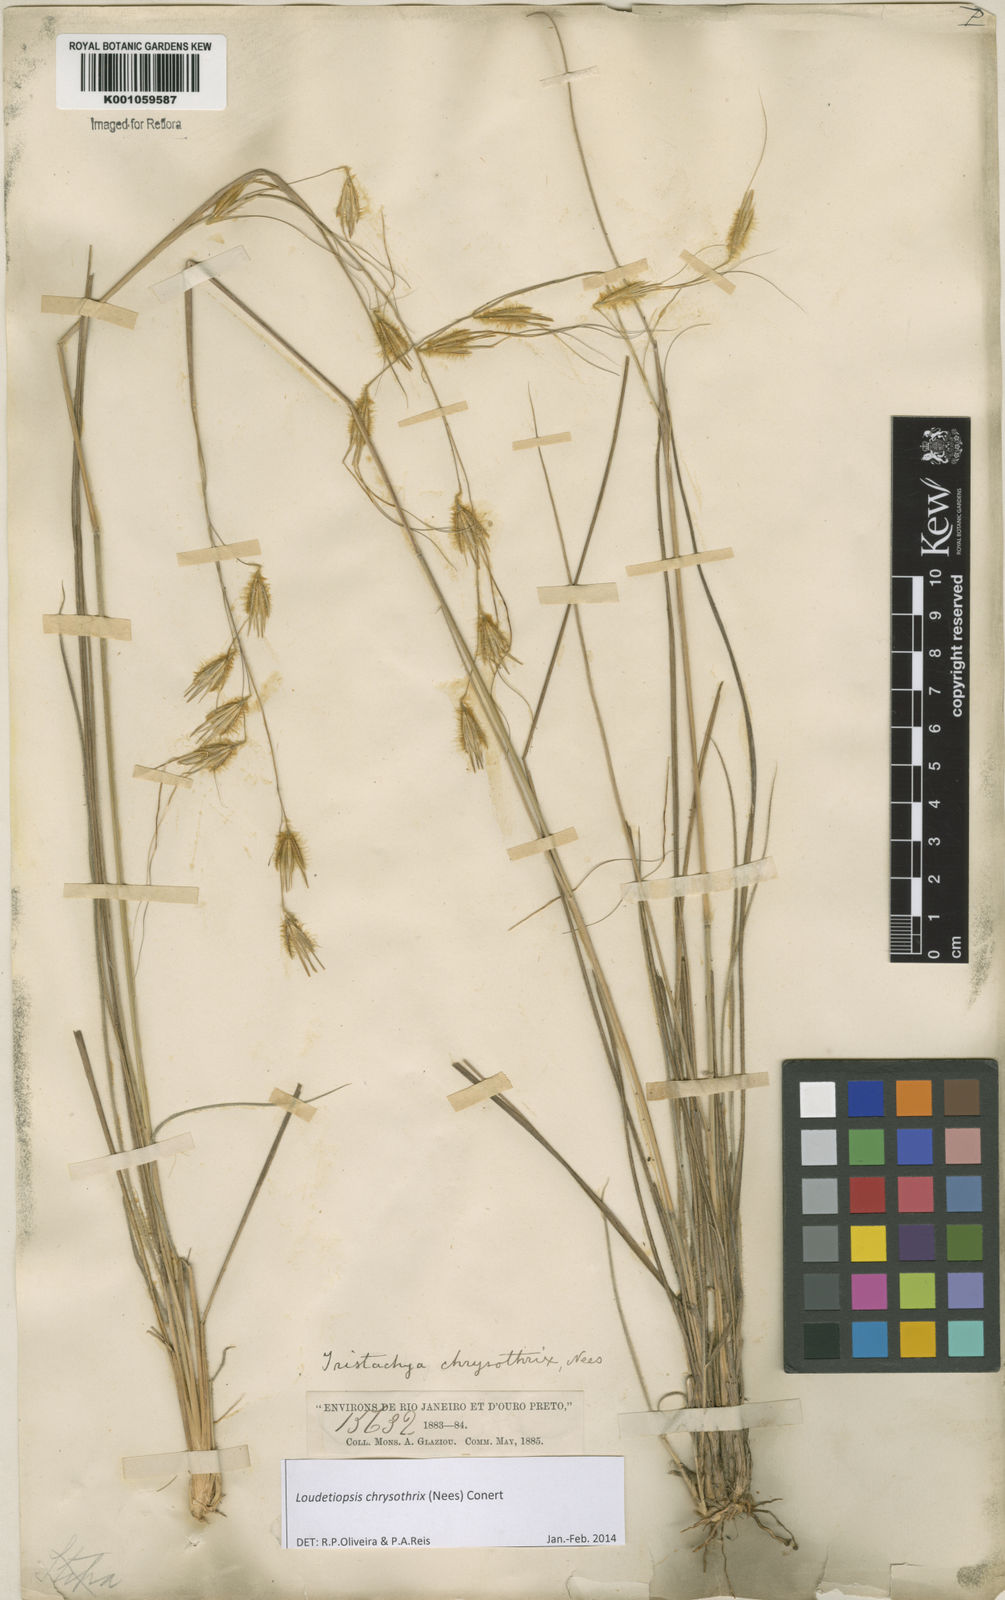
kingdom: Plantae
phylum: Tracheophyta
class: Liliopsida
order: Poales
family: Poaceae
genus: Loudetiopsis
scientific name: Loudetiopsis chrysothrix
